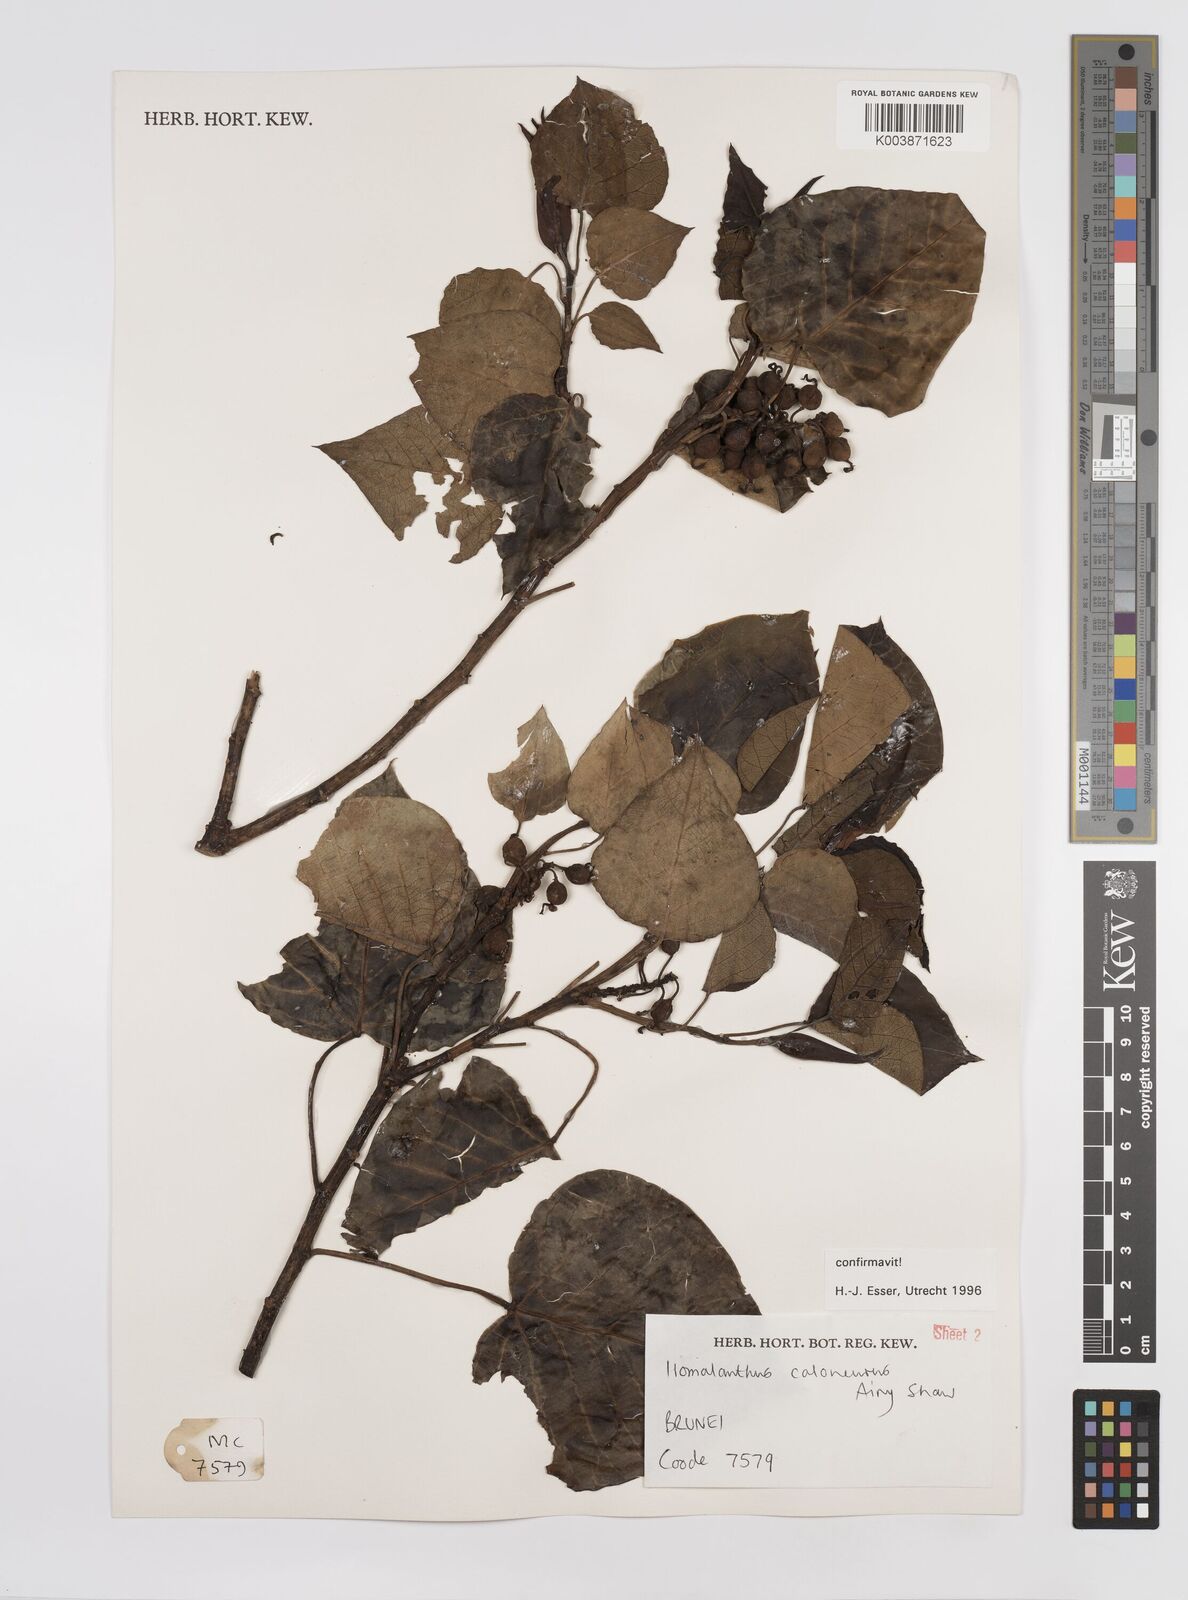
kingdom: Plantae
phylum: Tracheophyta
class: Magnoliopsida
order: Malpighiales
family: Euphorbiaceae
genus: Homalanthus
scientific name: Homalanthus caloneurus
